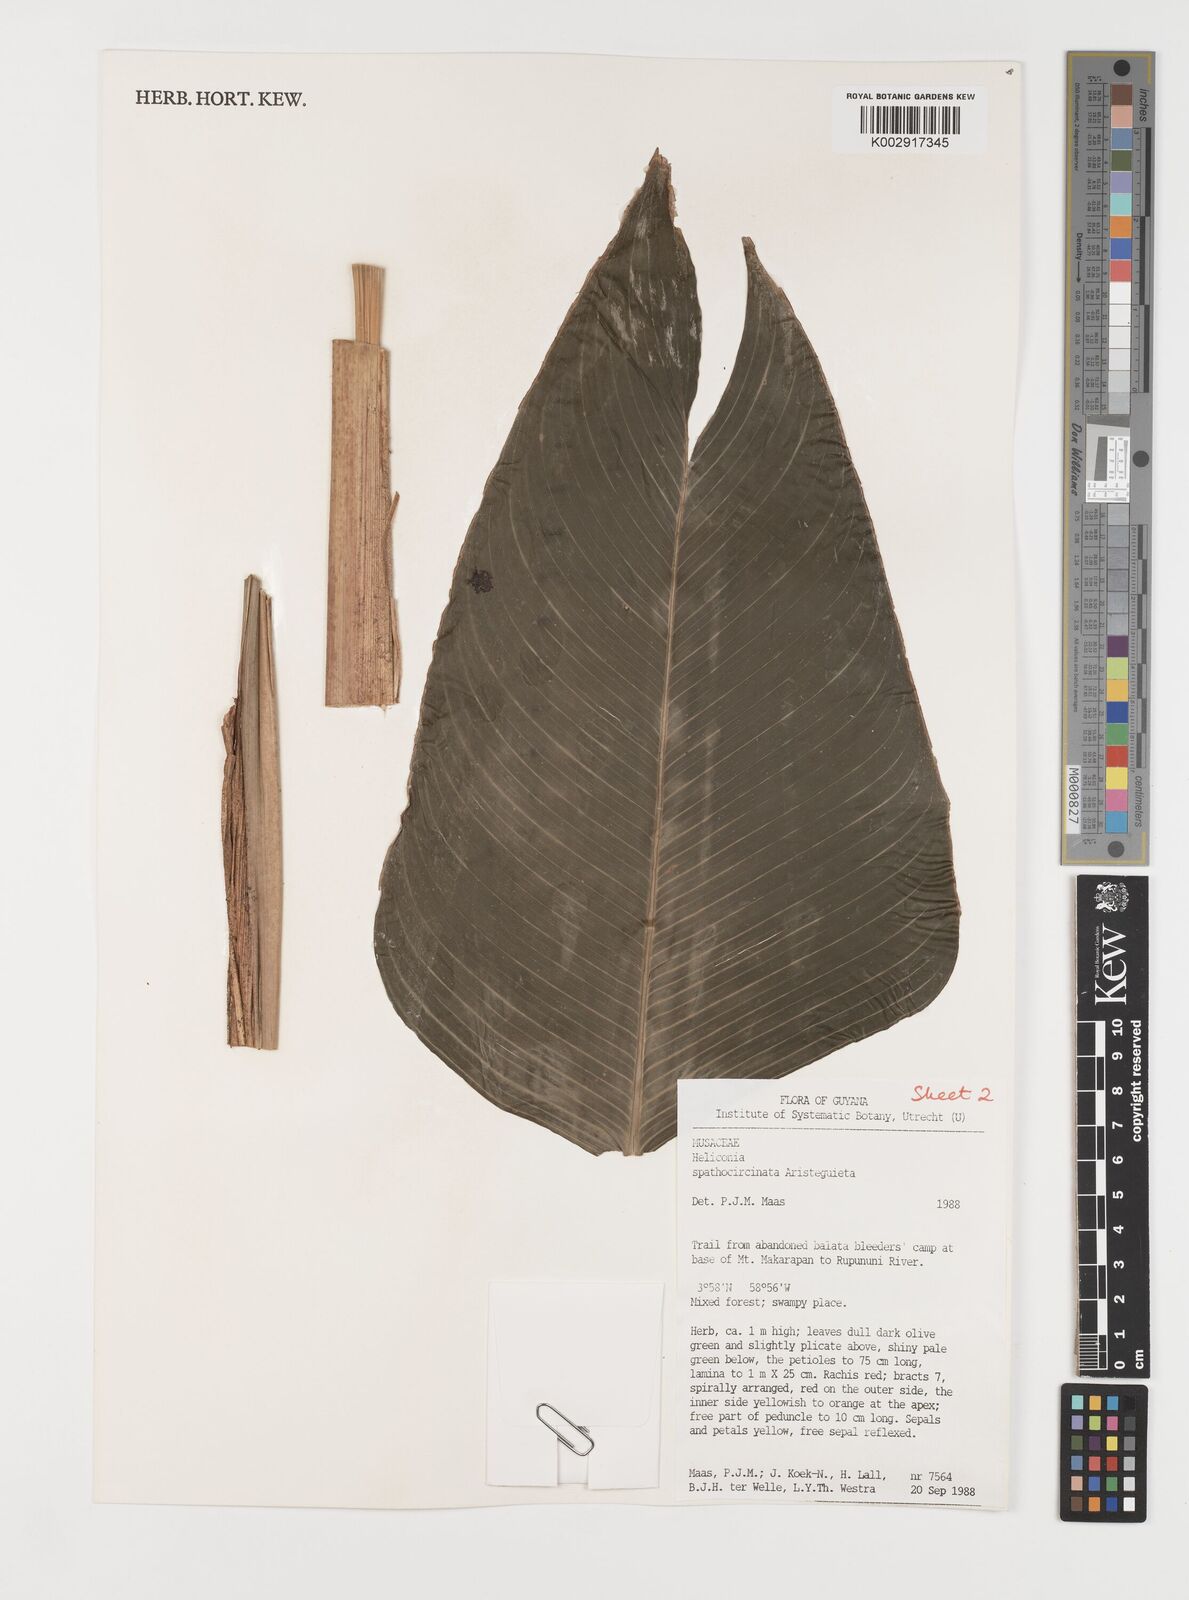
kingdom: Plantae
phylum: Tracheophyta
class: Liliopsida
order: Zingiberales
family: Heliconiaceae
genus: Heliconia
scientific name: Heliconia spathocircinata
